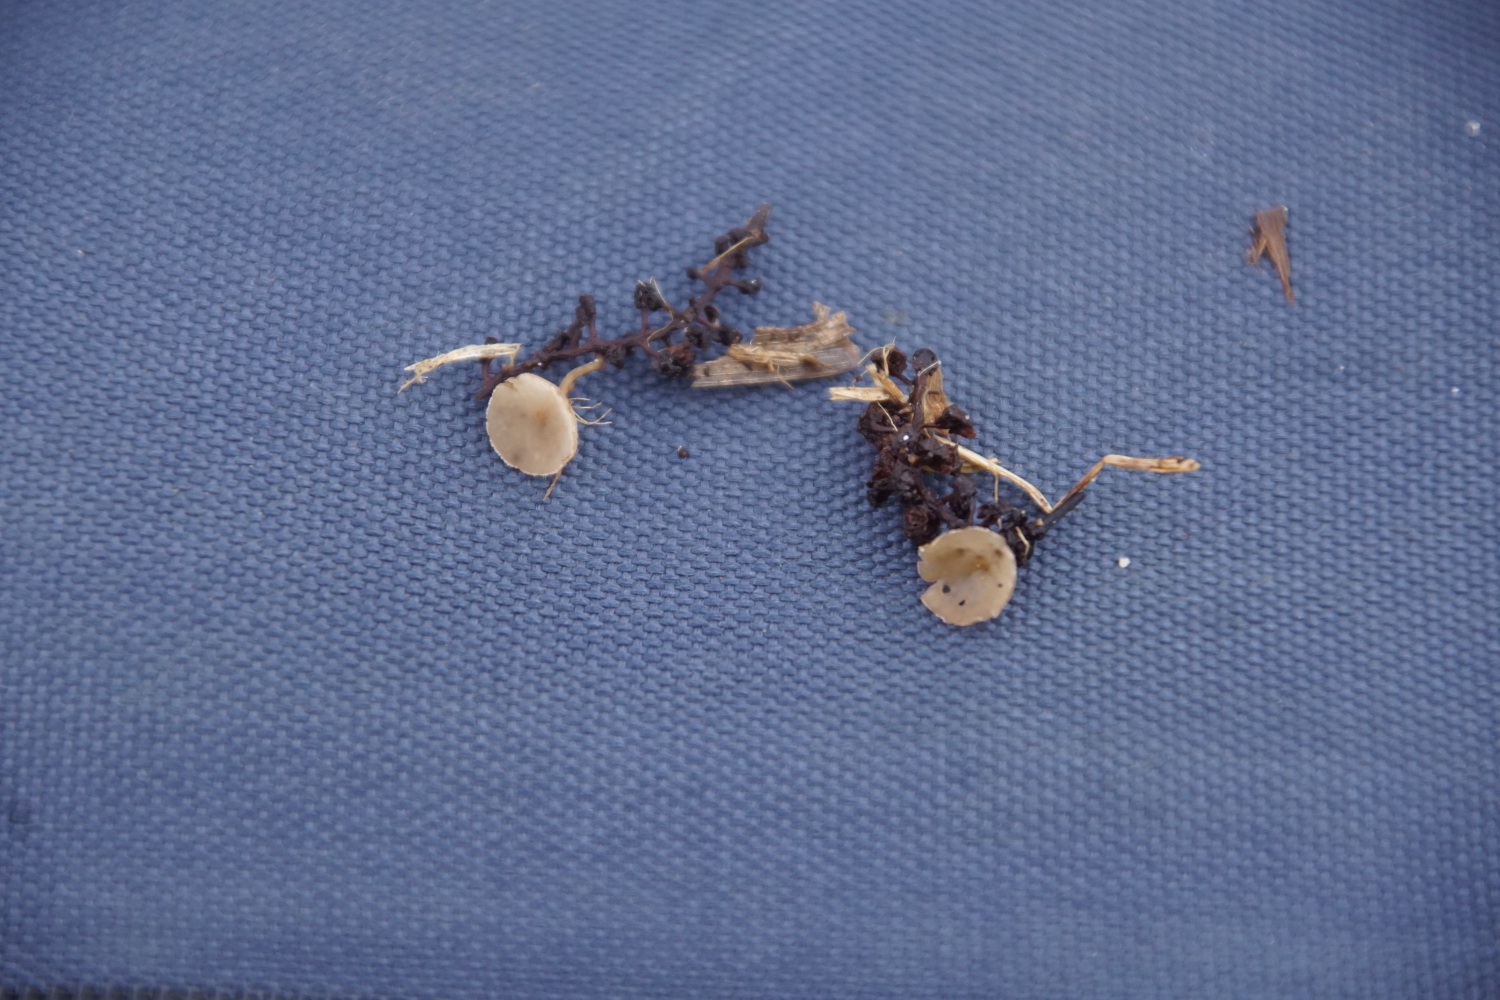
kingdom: Fungi
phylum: Ascomycota
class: Leotiomycetes
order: Helotiales
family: Sclerotiniaceae
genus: Ciboria
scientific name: Ciboria amentacea
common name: ellerakle-knoldskive
